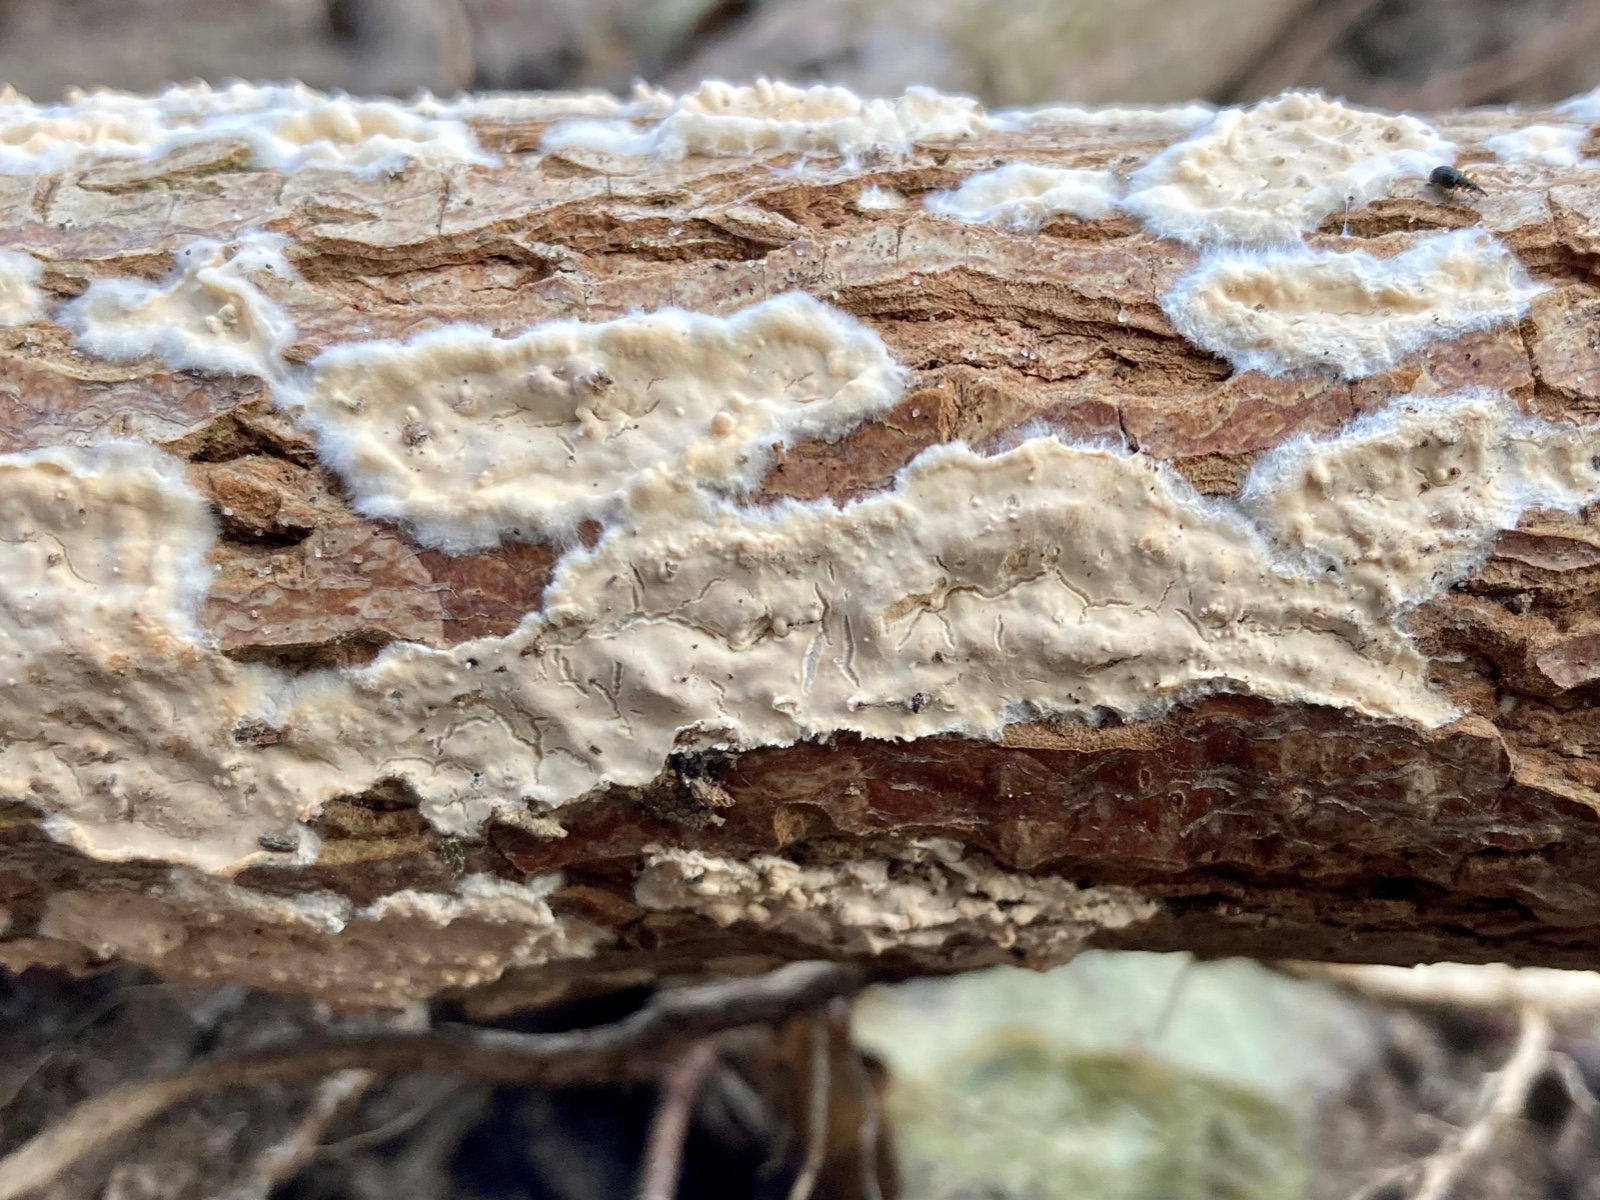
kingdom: Fungi
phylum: Basidiomycota
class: Agaricomycetes
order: Agaricales
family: Physalacriaceae
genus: Cylindrobasidium
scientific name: Cylindrobasidium evolvens
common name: sprækkehinde
